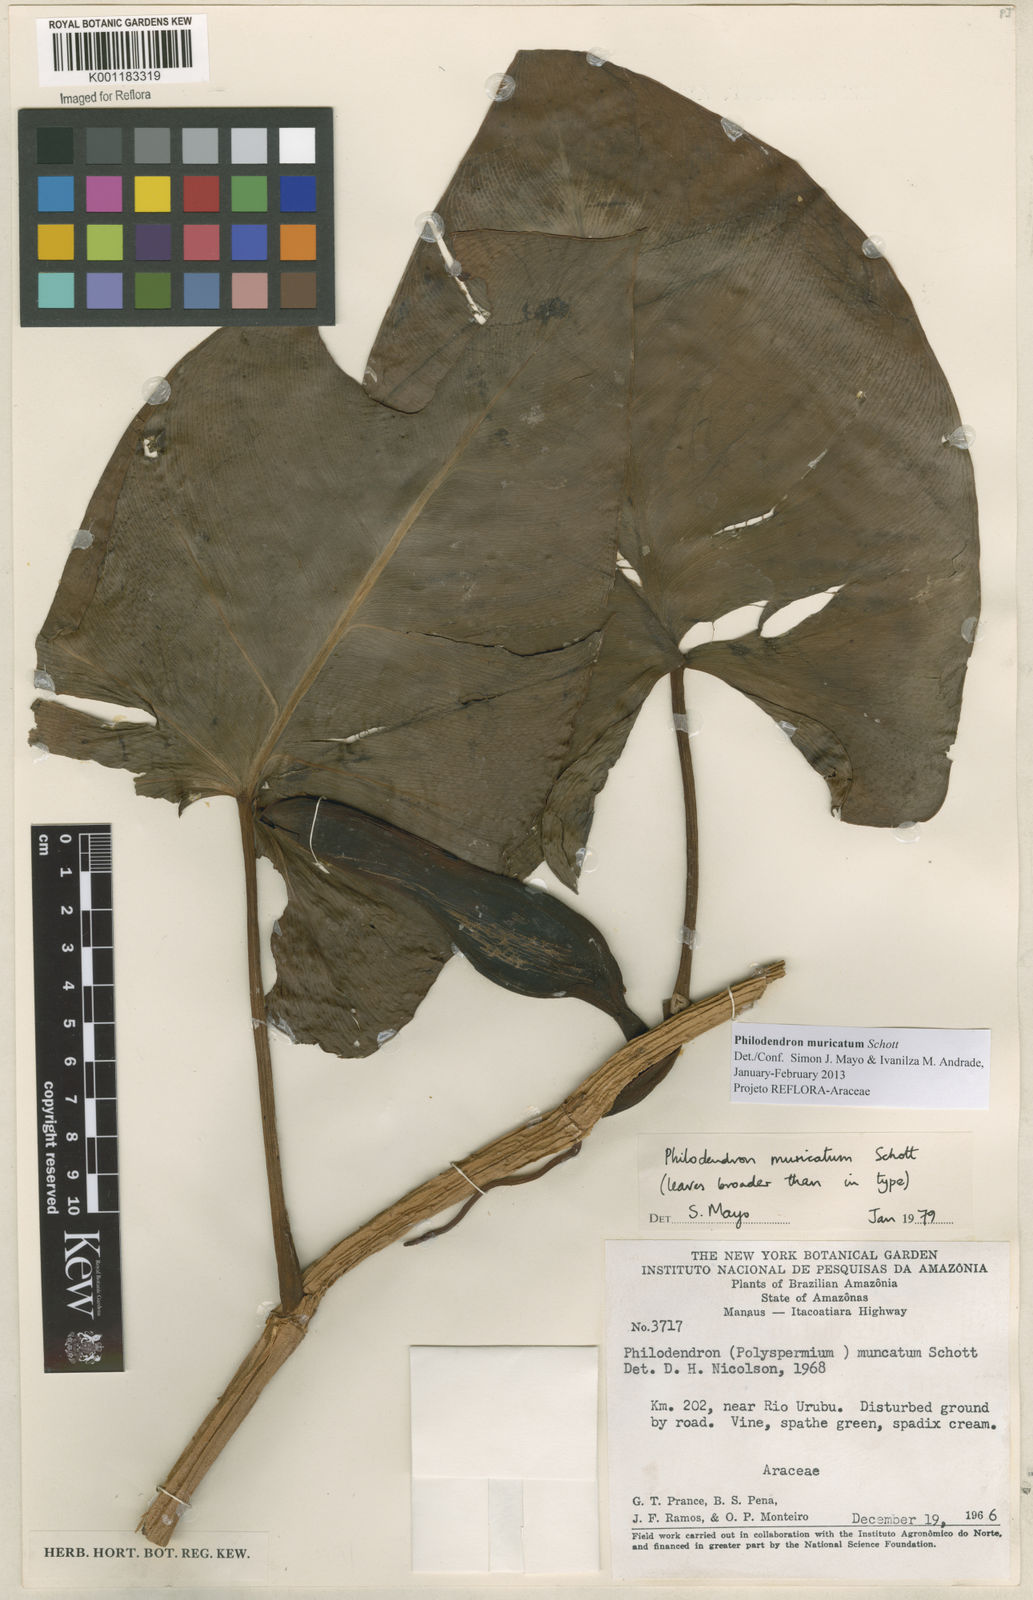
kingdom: Plantae
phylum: Tracheophyta
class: Liliopsida
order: Alismatales
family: Araceae
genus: Philodendron
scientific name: Philodendron muricatum
